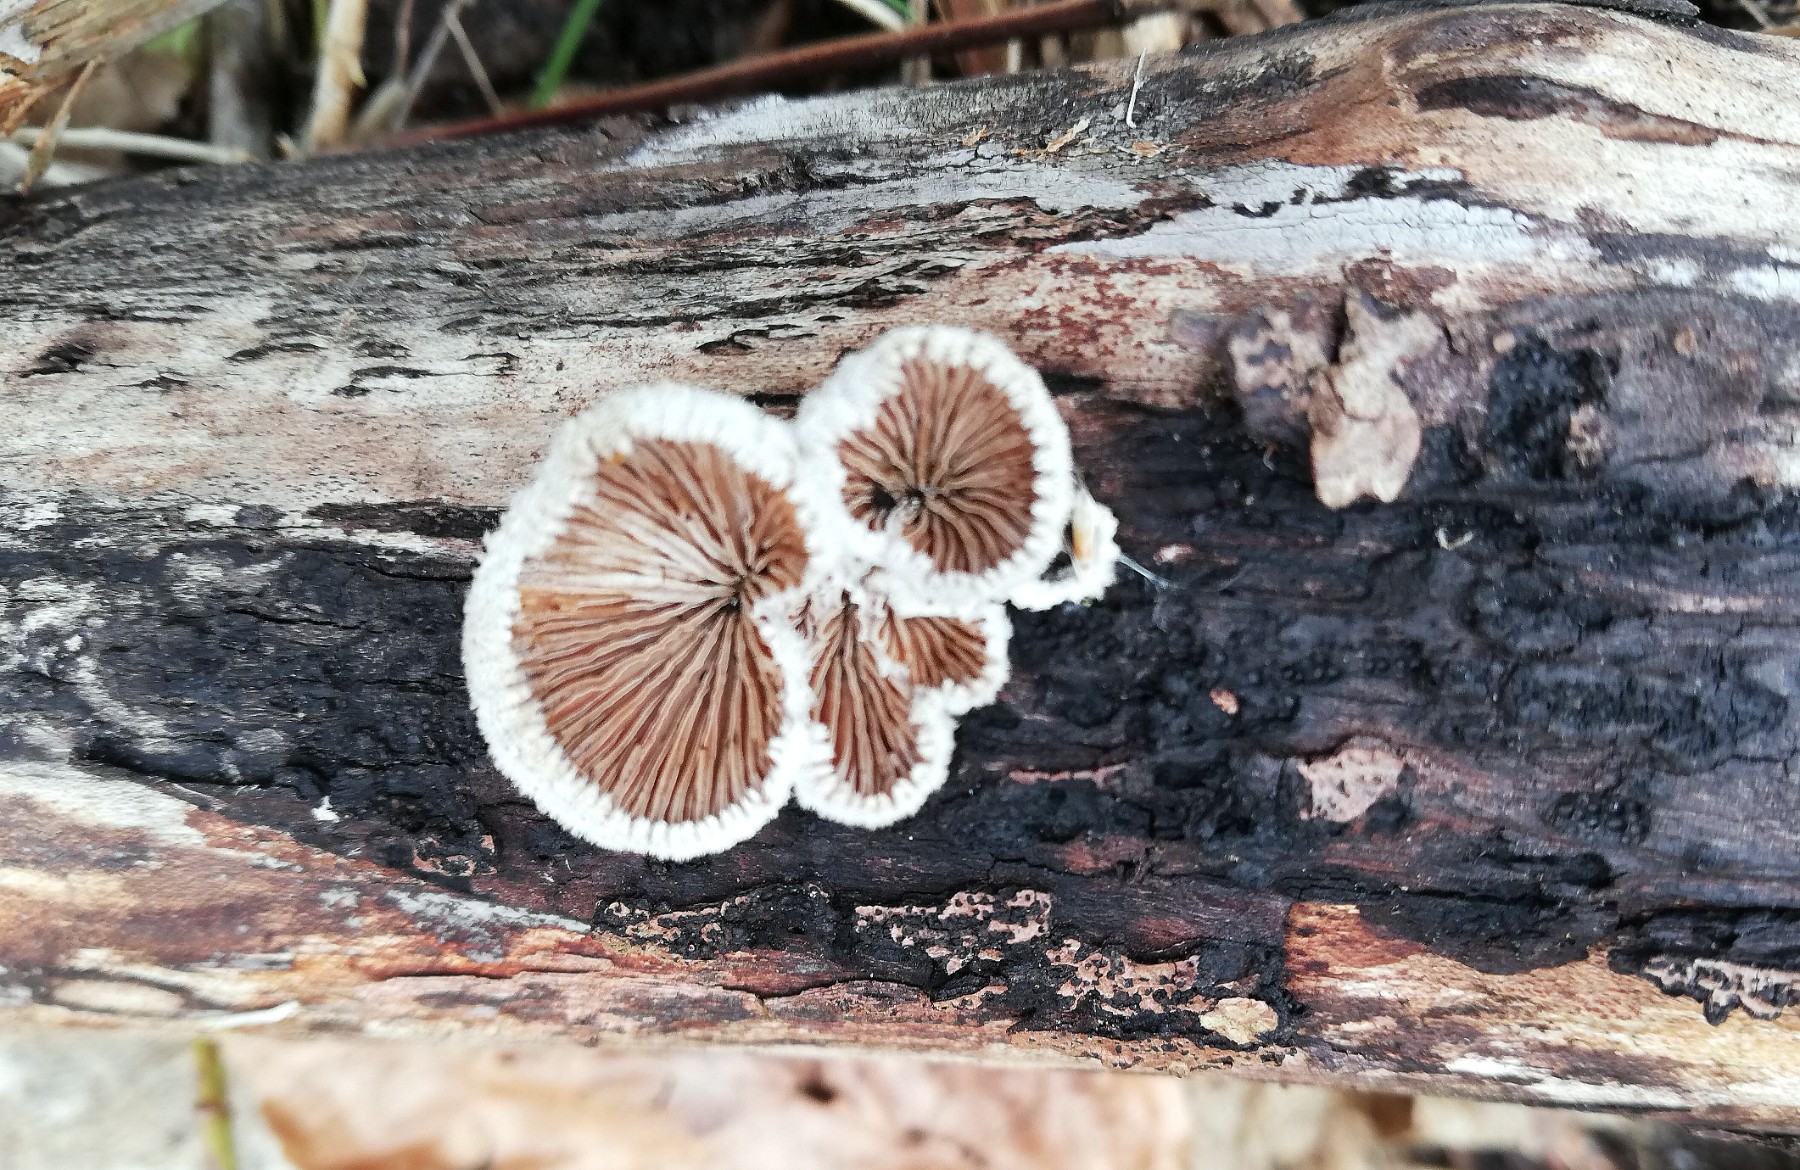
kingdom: Fungi
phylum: Basidiomycota
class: Agaricomycetes
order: Agaricales
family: Schizophyllaceae
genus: Schizophyllum
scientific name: Schizophyllum commune
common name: kløvblad
